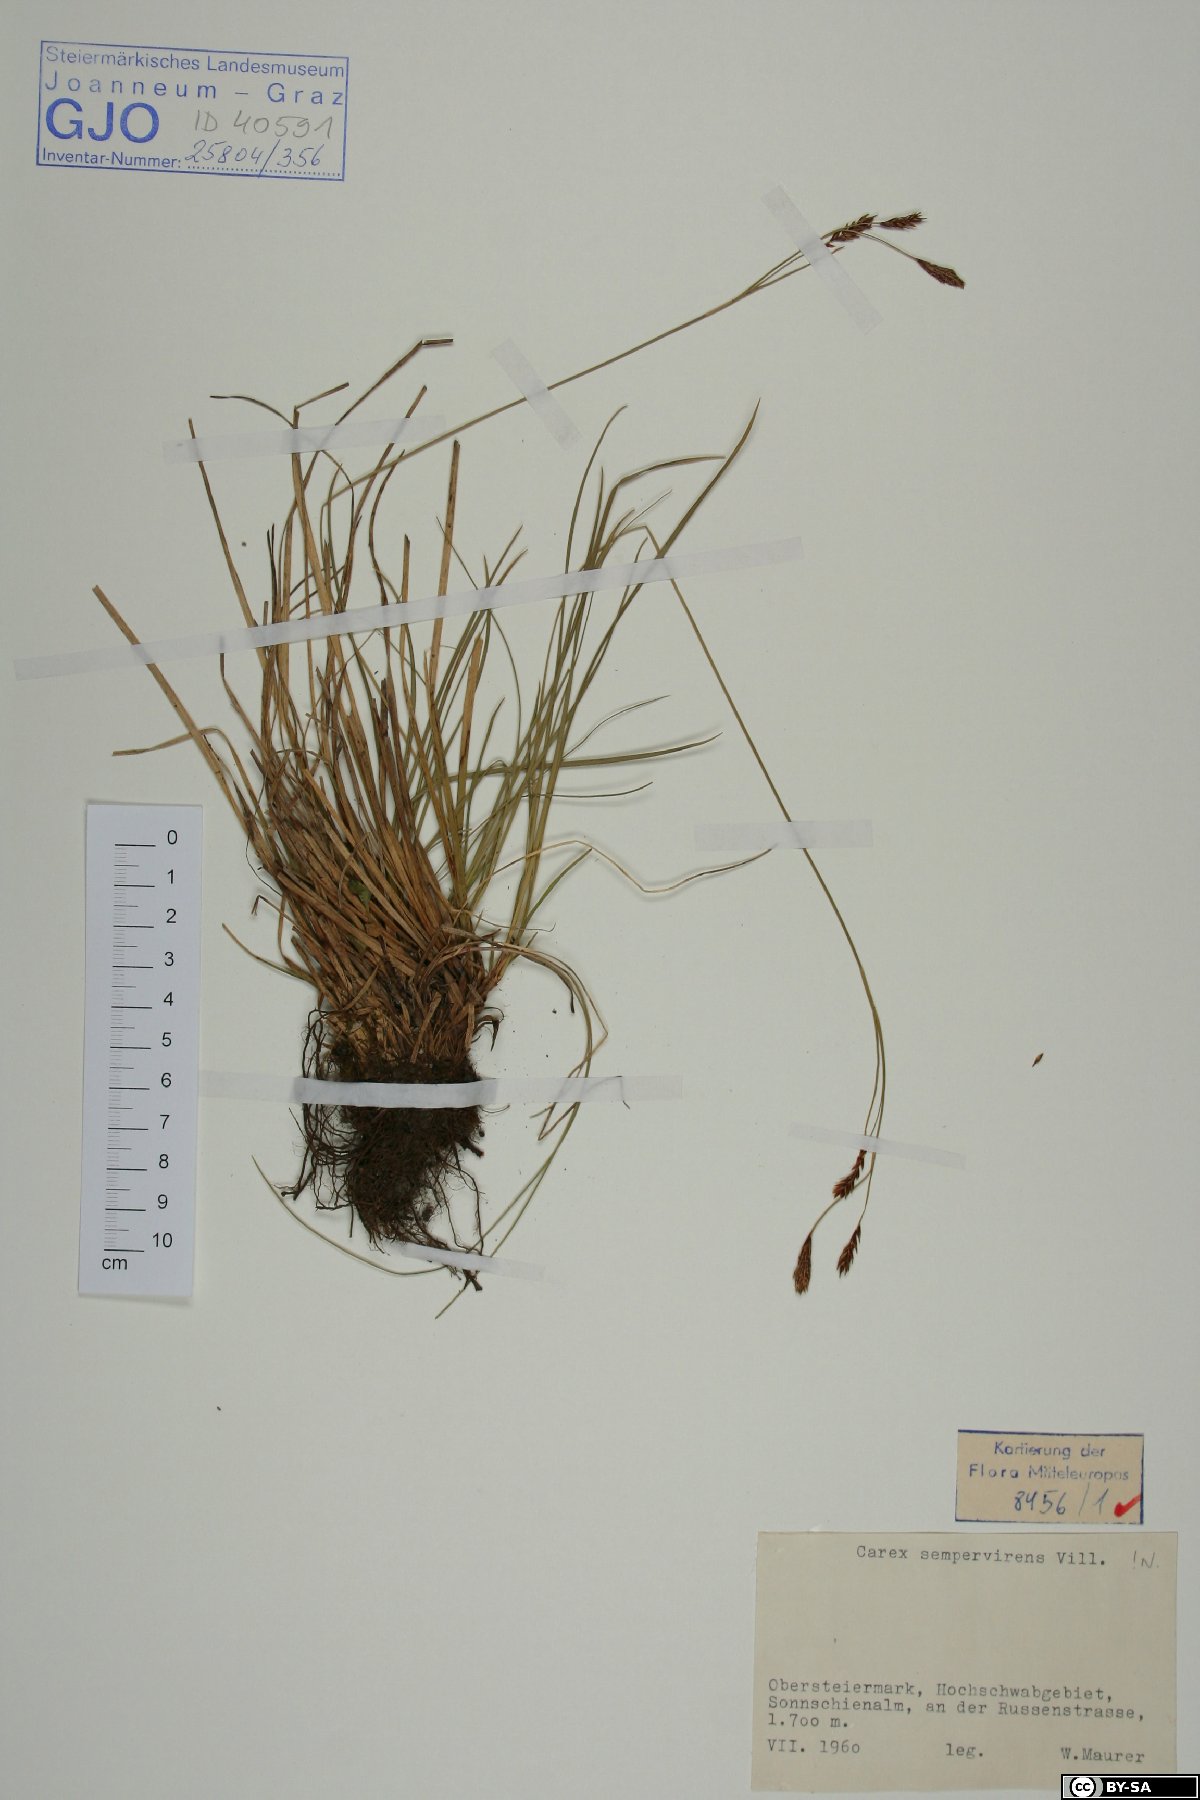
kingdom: Plantae
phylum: Tracheophyta
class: Liliopsida
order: Poales
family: Cyperaceae
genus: Carex
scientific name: Carex sempervirens
